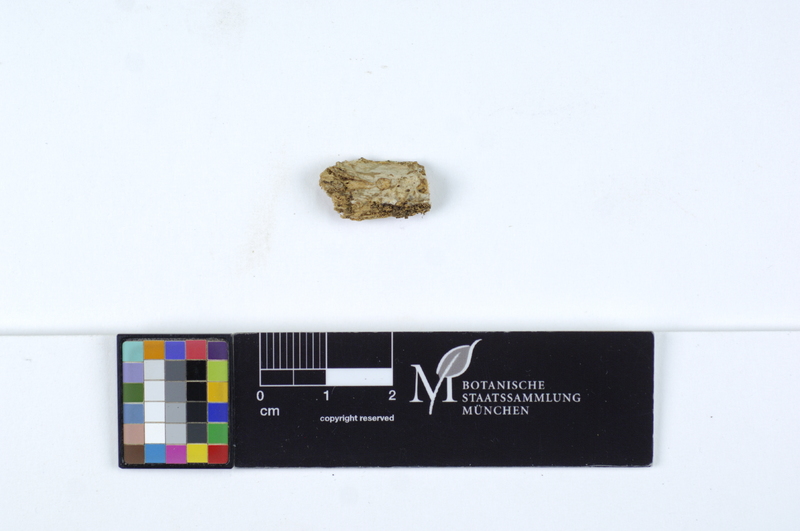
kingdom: Plantae
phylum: Tracheophyta
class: Pinopsida
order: Pinales
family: Pinaceae
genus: Picea
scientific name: Picea
